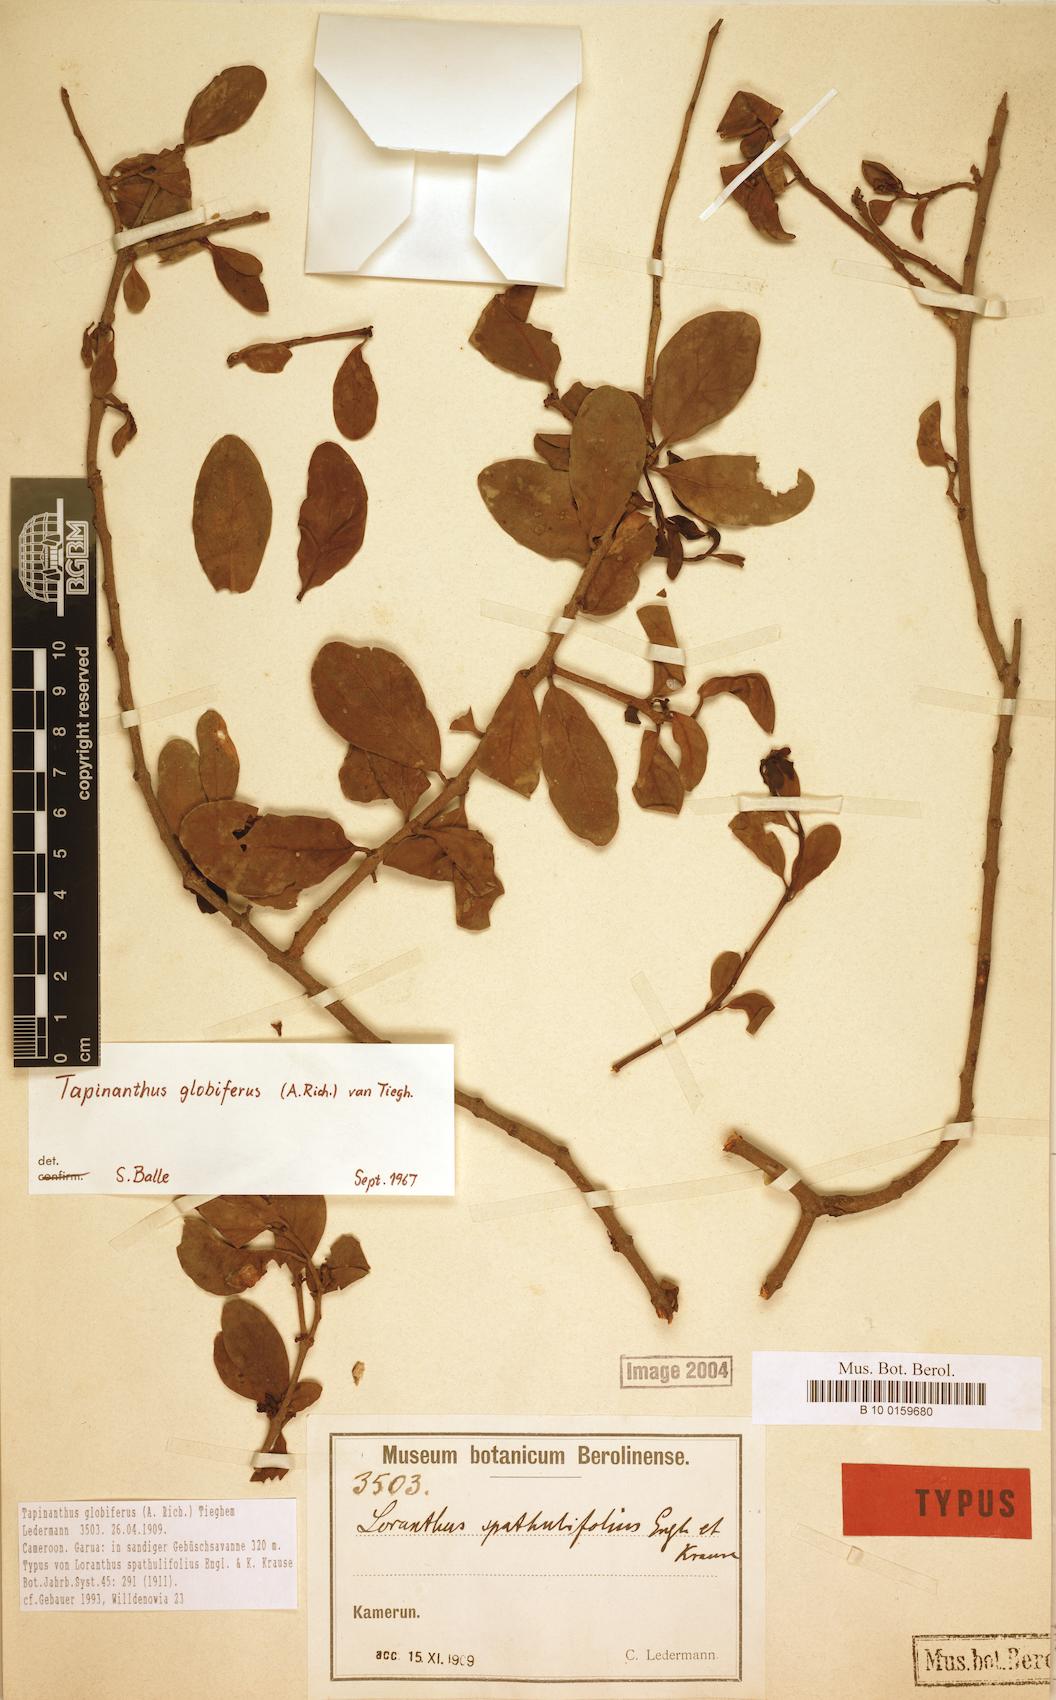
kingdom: Plantae
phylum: Tracheophyta
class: Magnoliopsida
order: Santalales
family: Loranthaceae
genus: Tapinanthus
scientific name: Tapinanthus globiferus
